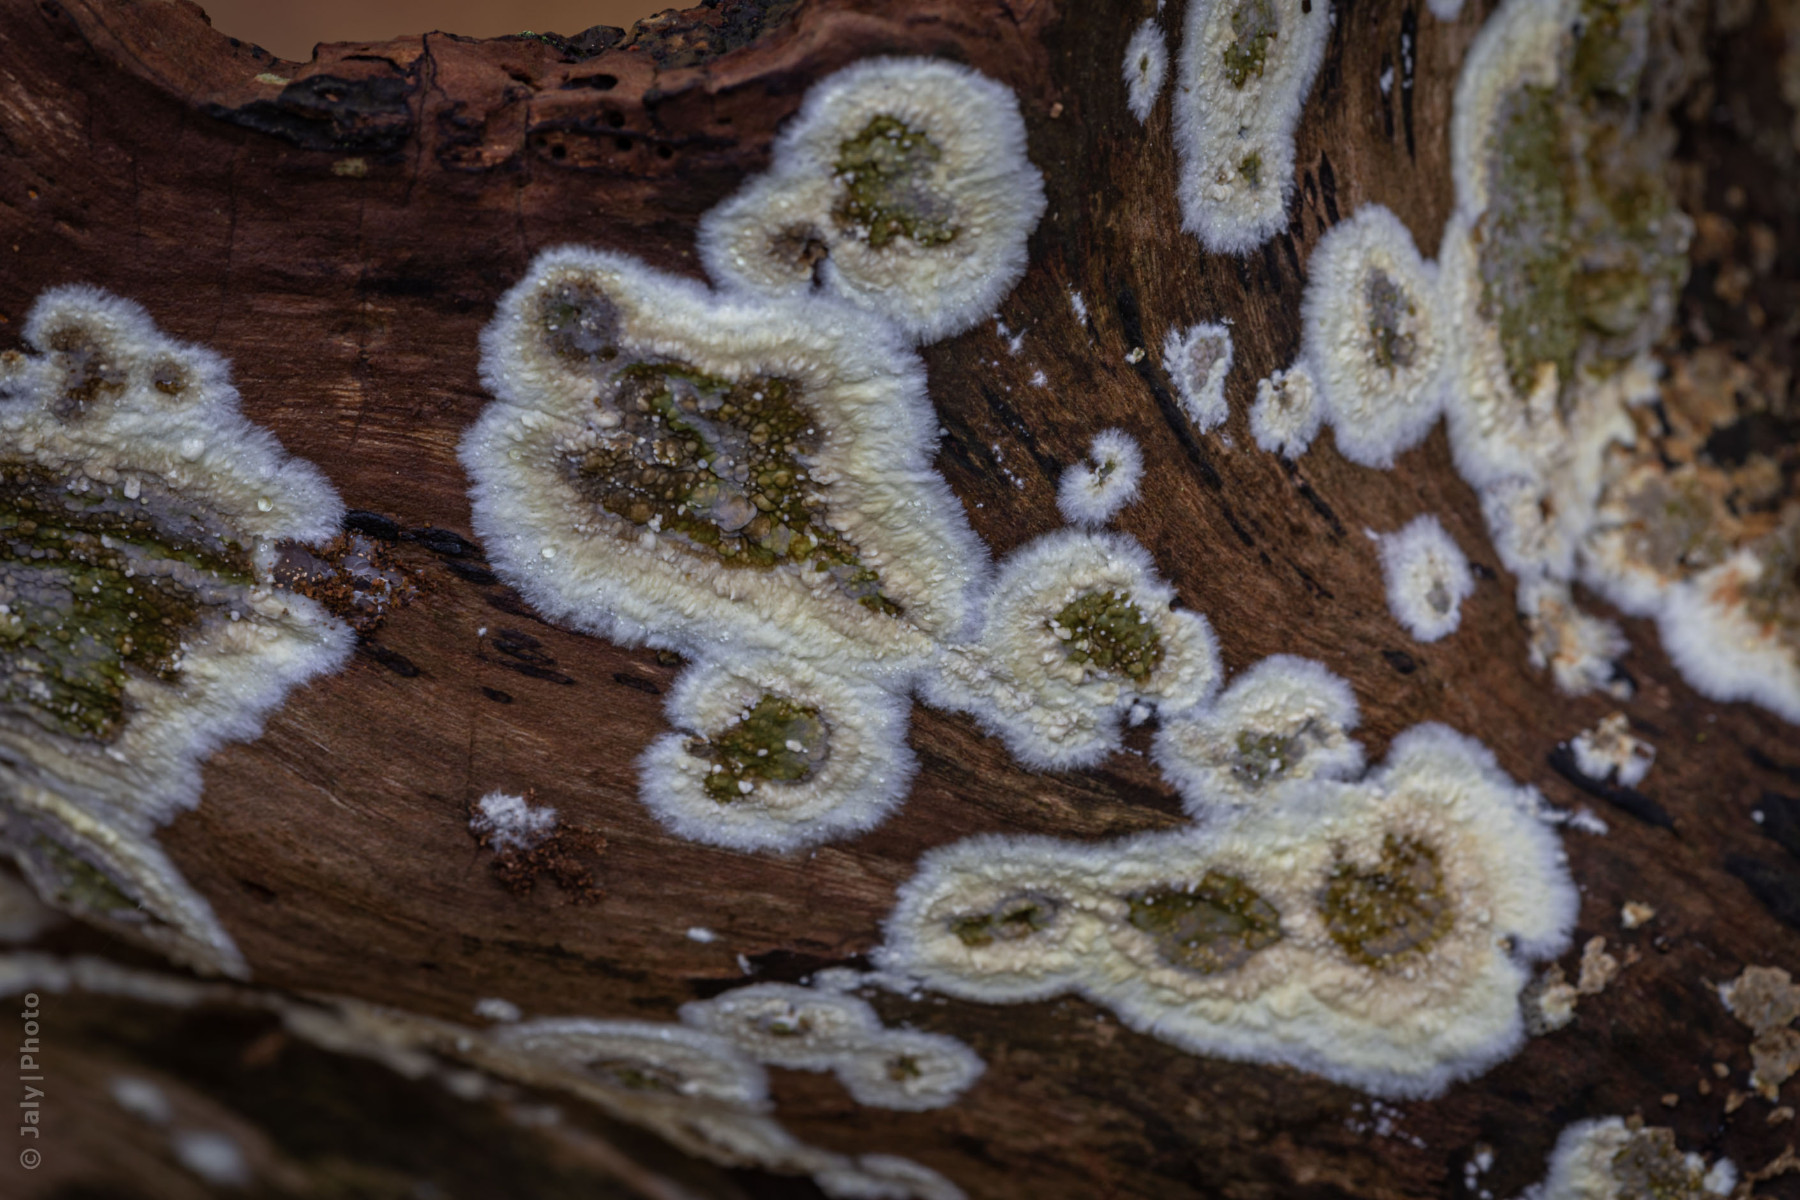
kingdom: Fungi
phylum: Basidiomycota
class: Agaricomycetes
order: Boletales
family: Coniophoraceae
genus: Coniophora
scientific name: Coniophora
